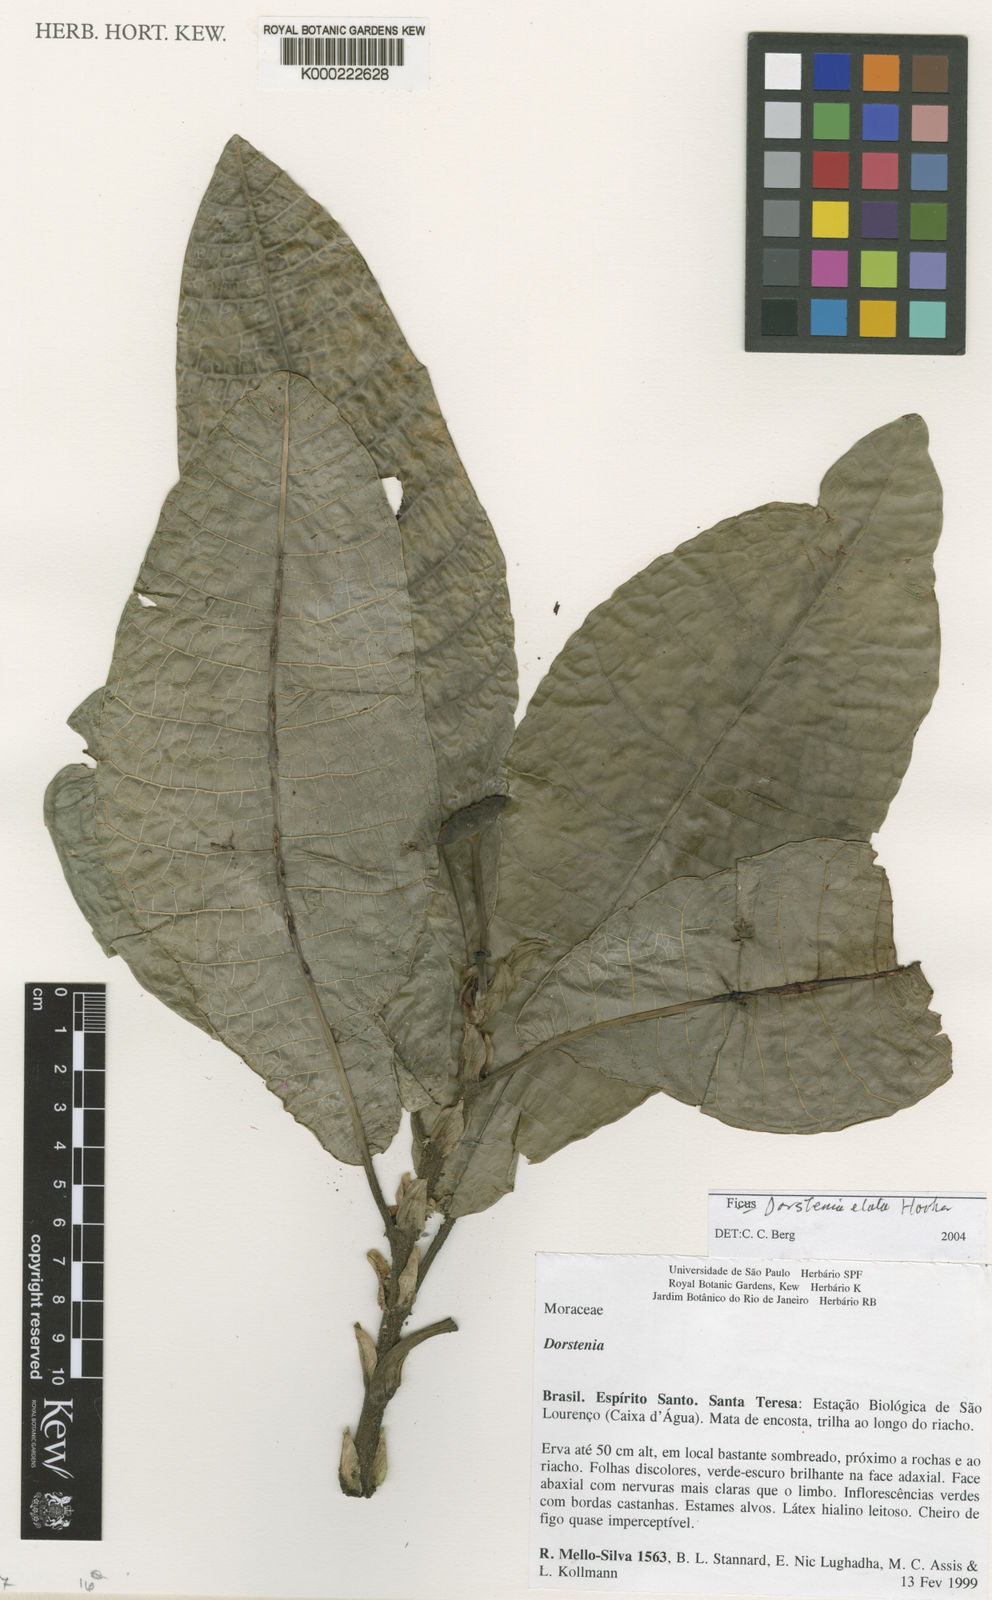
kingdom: Plantae
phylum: Tracheophyta
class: Magnoliopsida
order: Rosales
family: Moraceae
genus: Dorstenia
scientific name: Dorstenia
